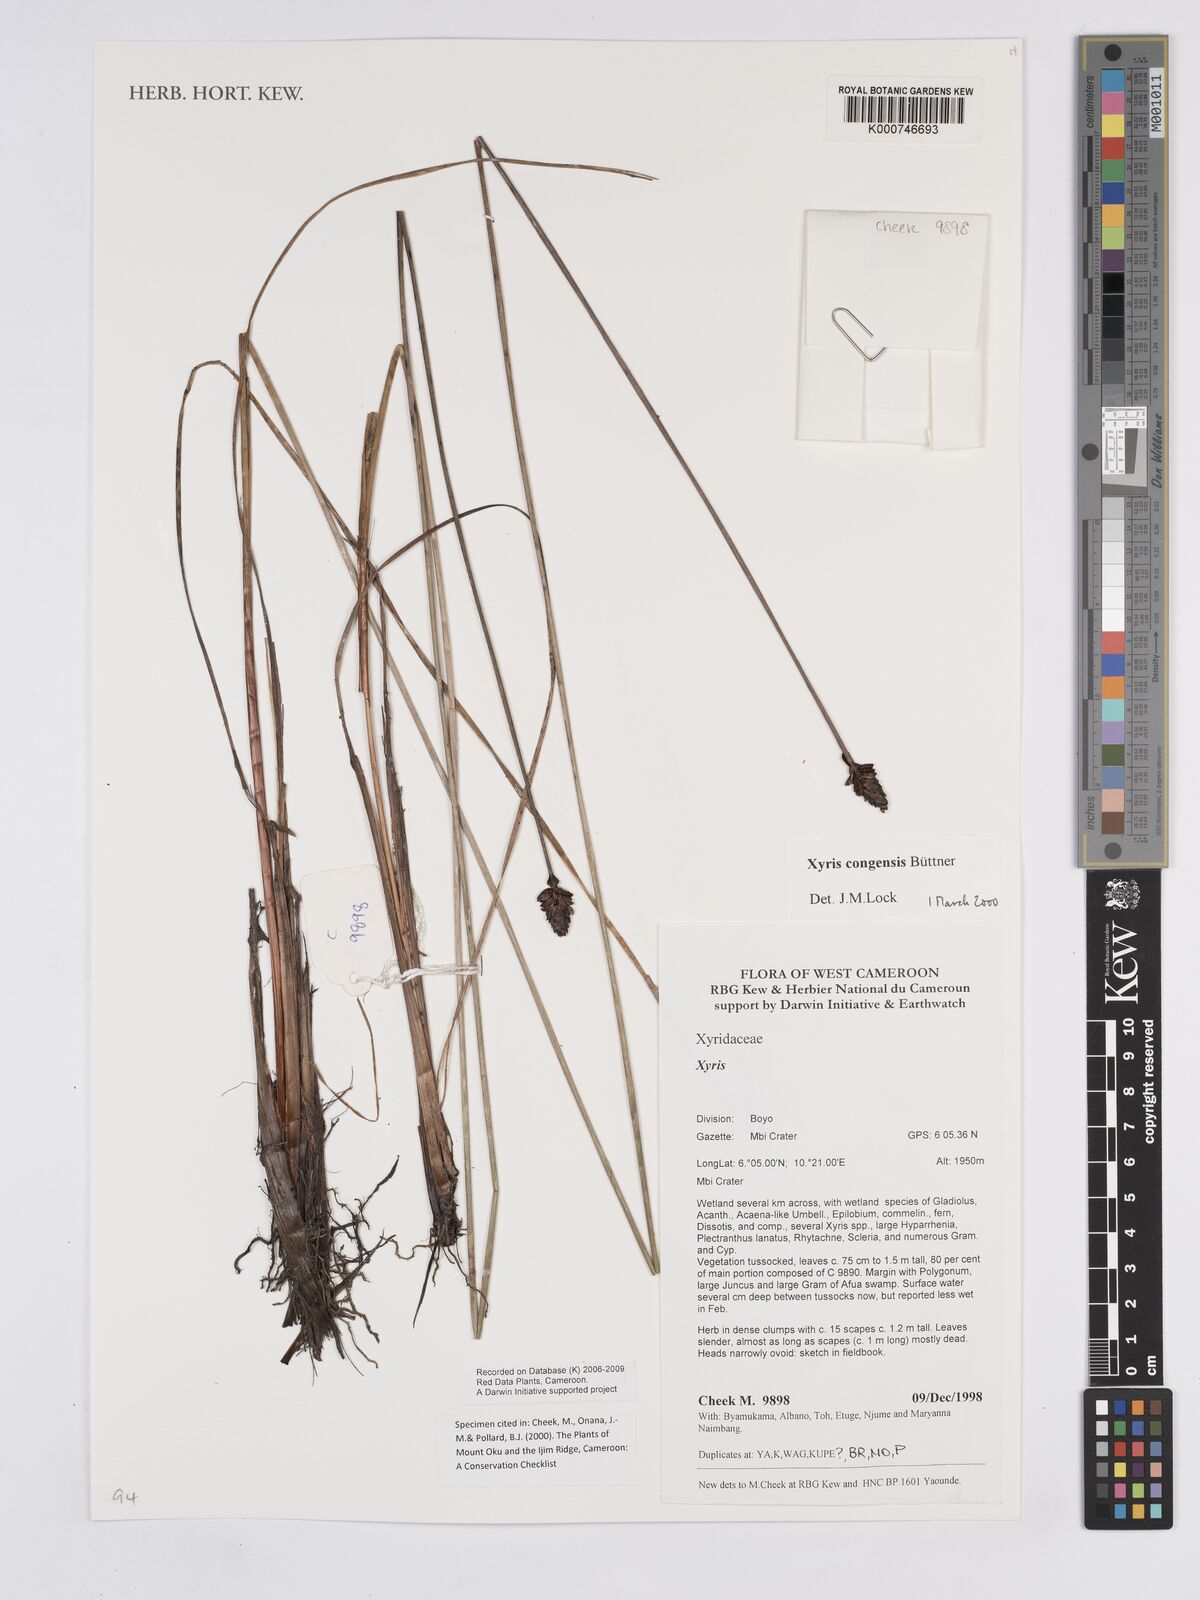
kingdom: Plantae
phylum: Tracheophyta
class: Liliopsida
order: Poales
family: Xyridaceae
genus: Xyris
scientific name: Xyris
